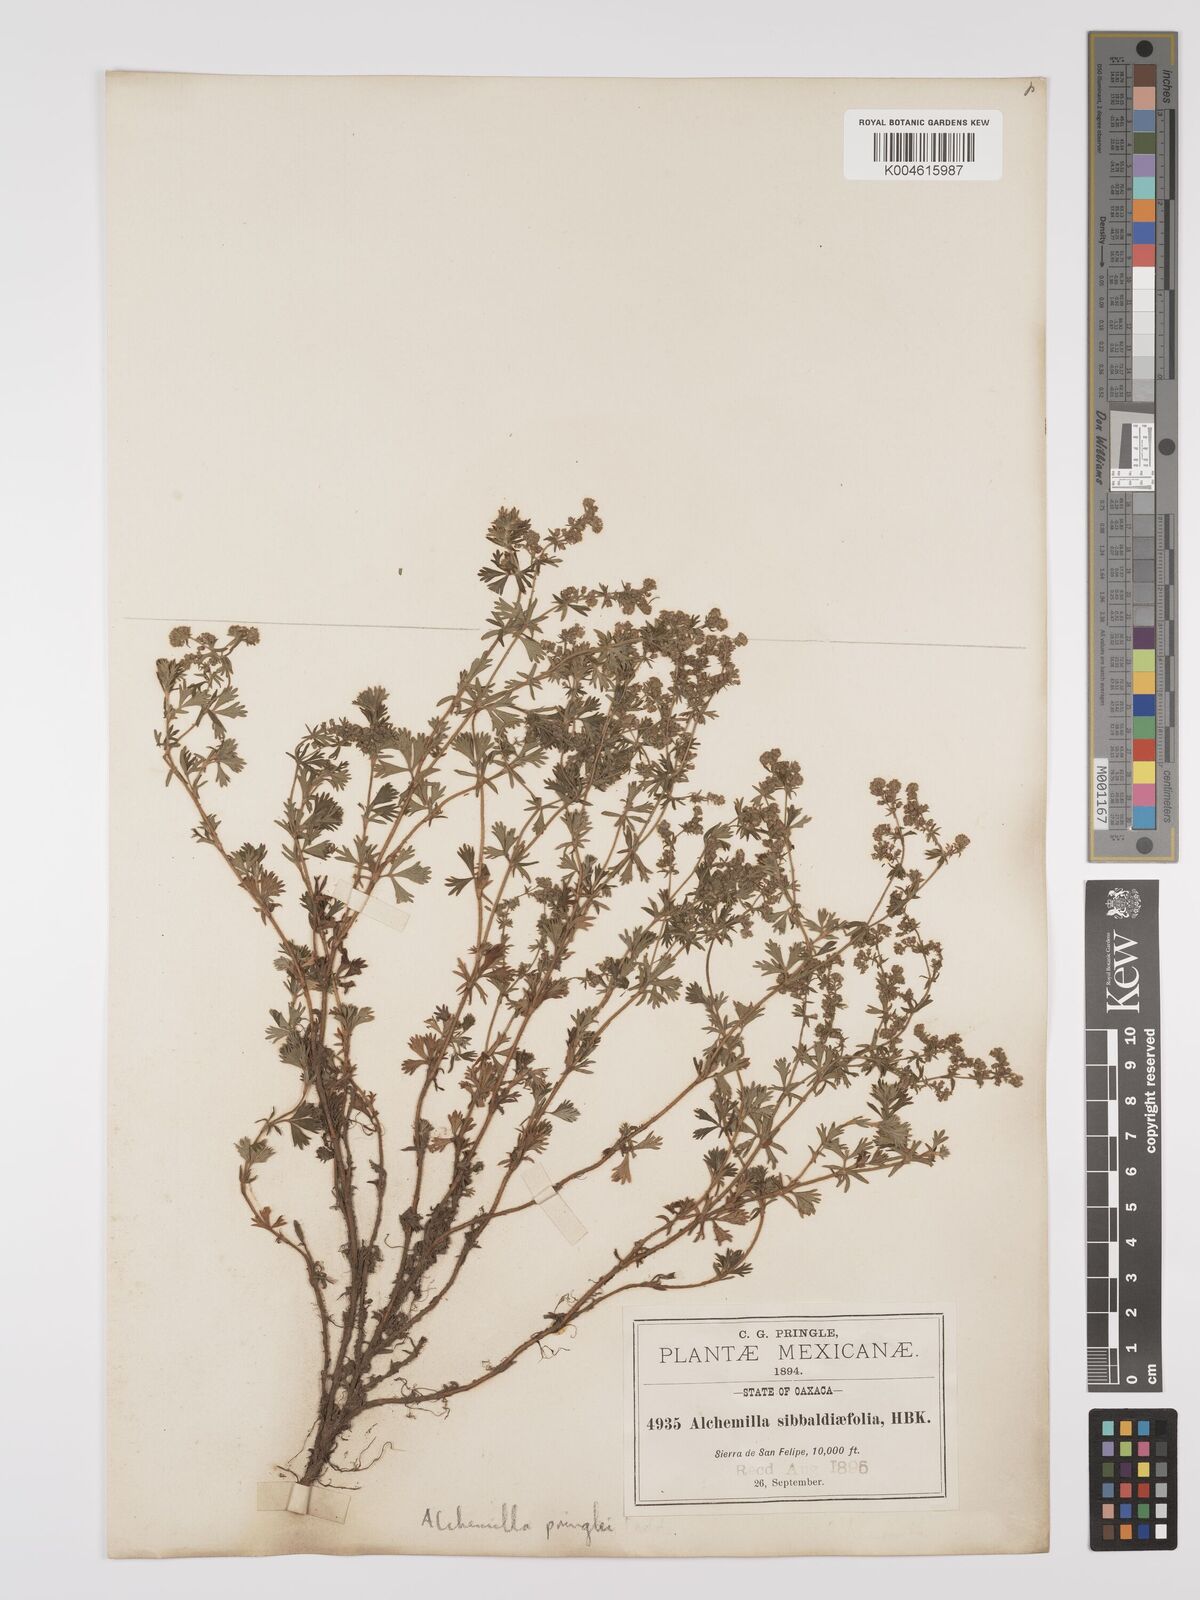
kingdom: Plantae
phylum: Tracheophyta
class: Magnoliopsida
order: Rosales
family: Rosaceae
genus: Lachemilla
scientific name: Lachemilla sibbaldiifolia
